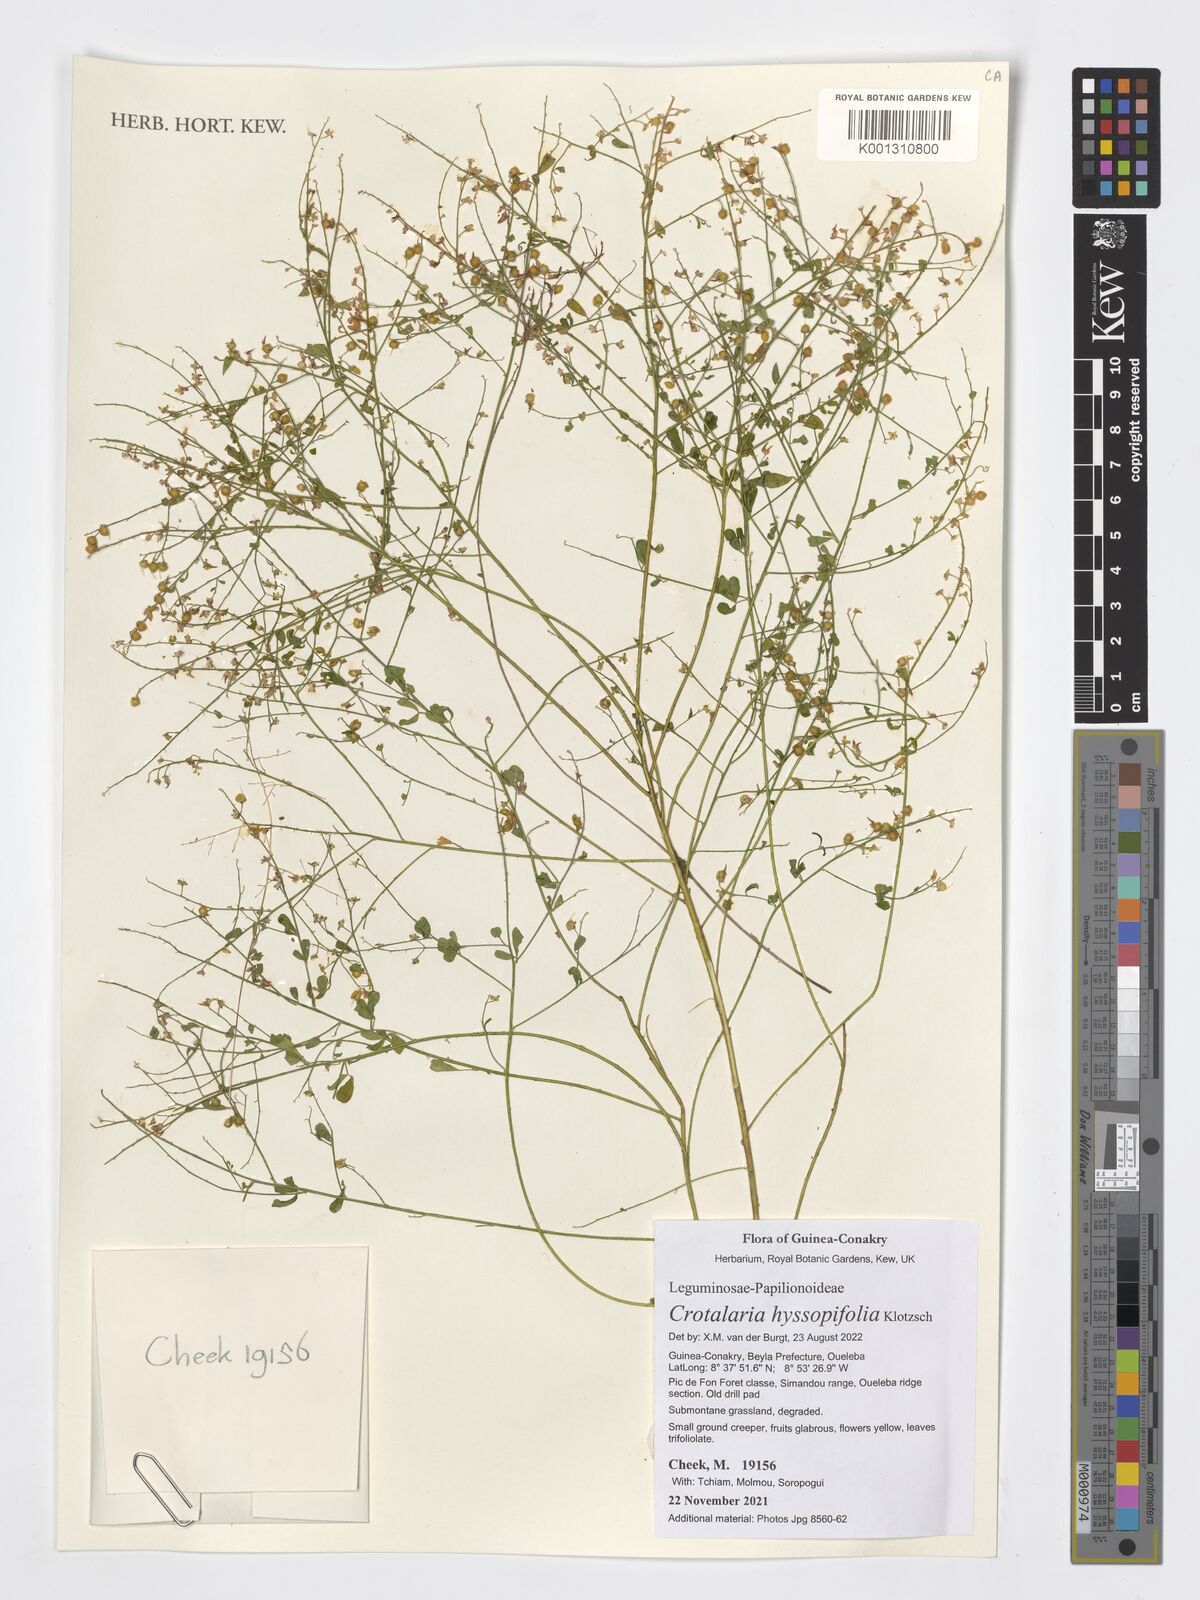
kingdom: Plantae
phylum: Tracheophyta
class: Magnoliopsida
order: Fabales
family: Fabaceae
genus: Crotalaria
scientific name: Crotalaria hyssopifolia
